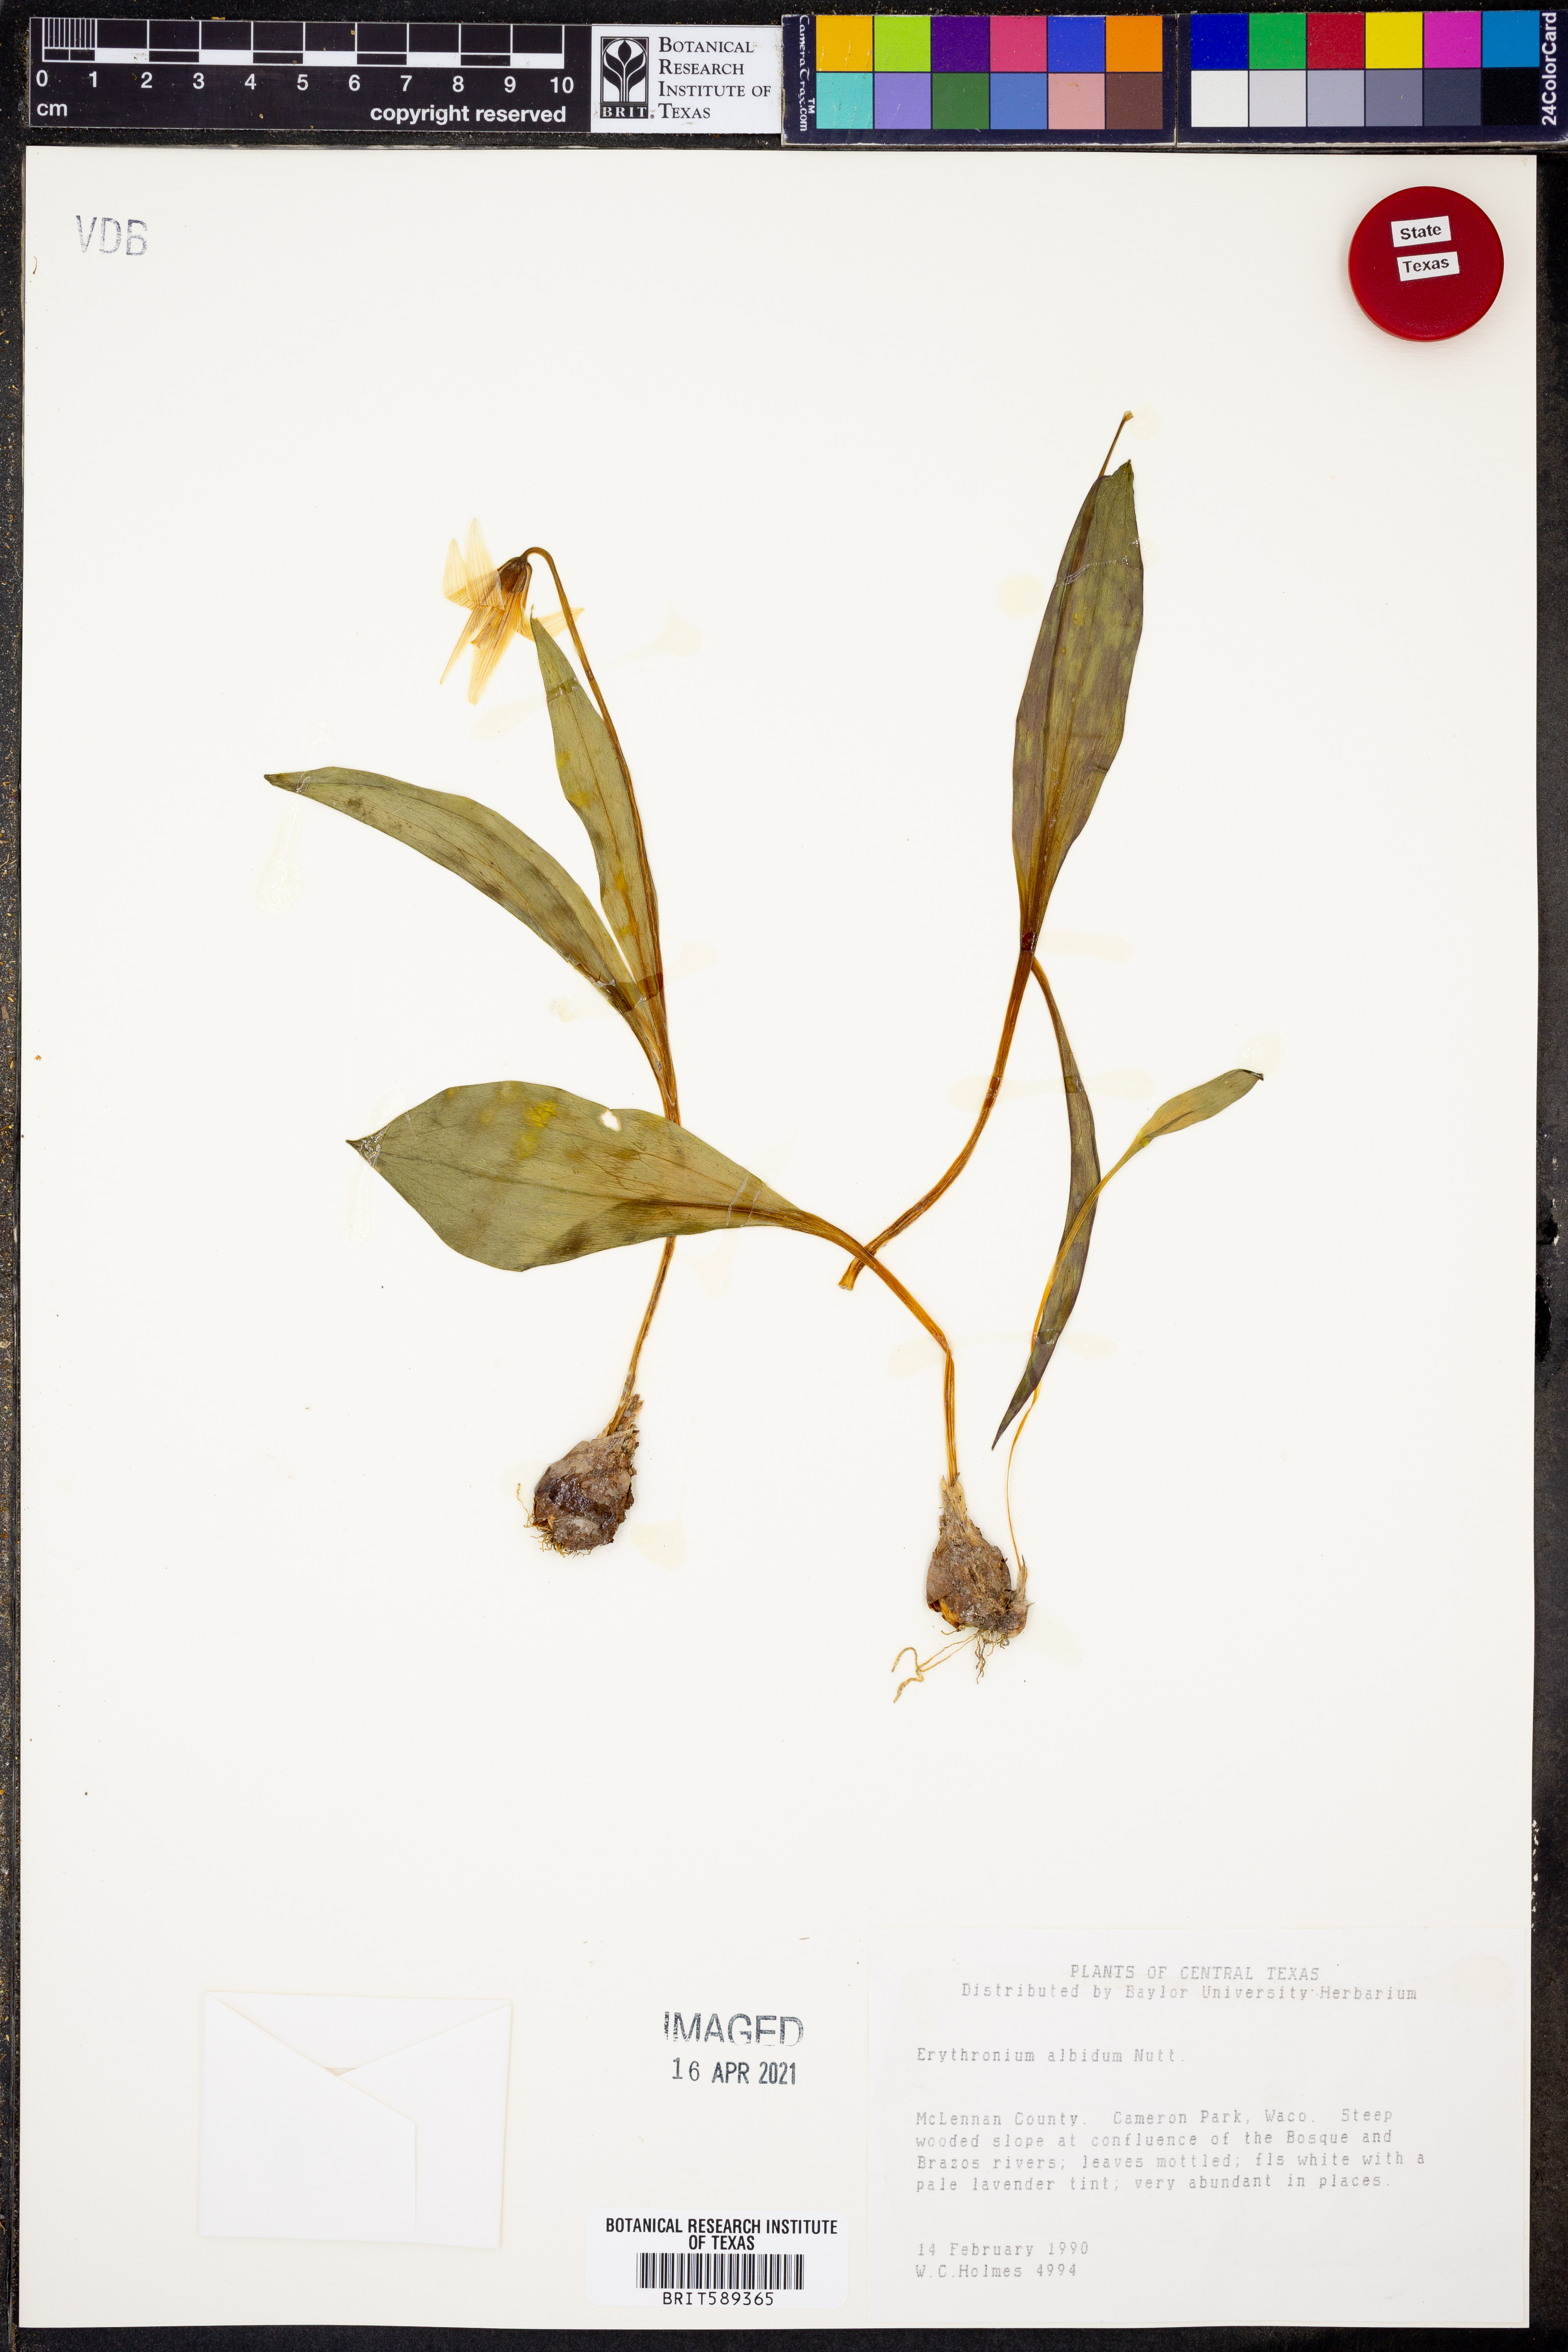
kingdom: Plantae
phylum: Tracheophyta
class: Liliopsida
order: Liliales
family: Liliaceae
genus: Erythronium
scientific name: Erythronium albidum
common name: White trout-lily
